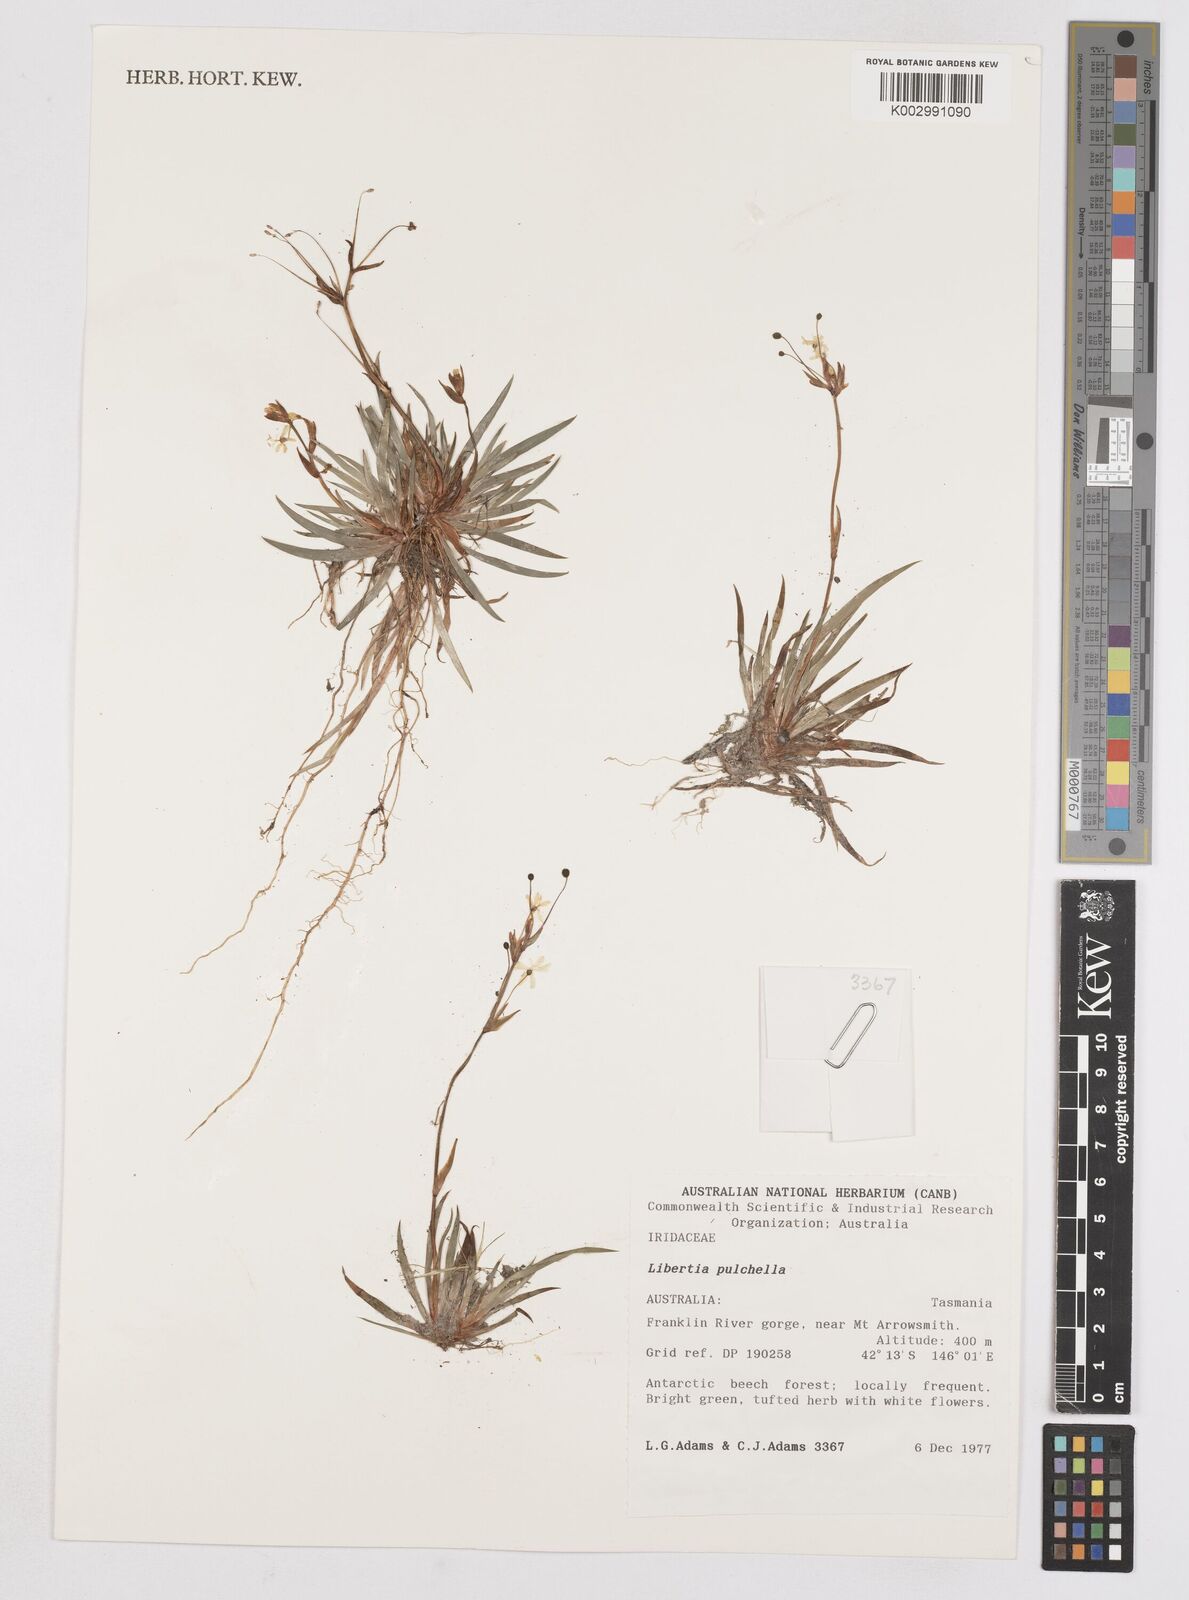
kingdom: Plantae
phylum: Tracheophyta
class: Liliopsida
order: Asparagales
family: Iridaceae
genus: Libertia
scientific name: Libertia pulchella
